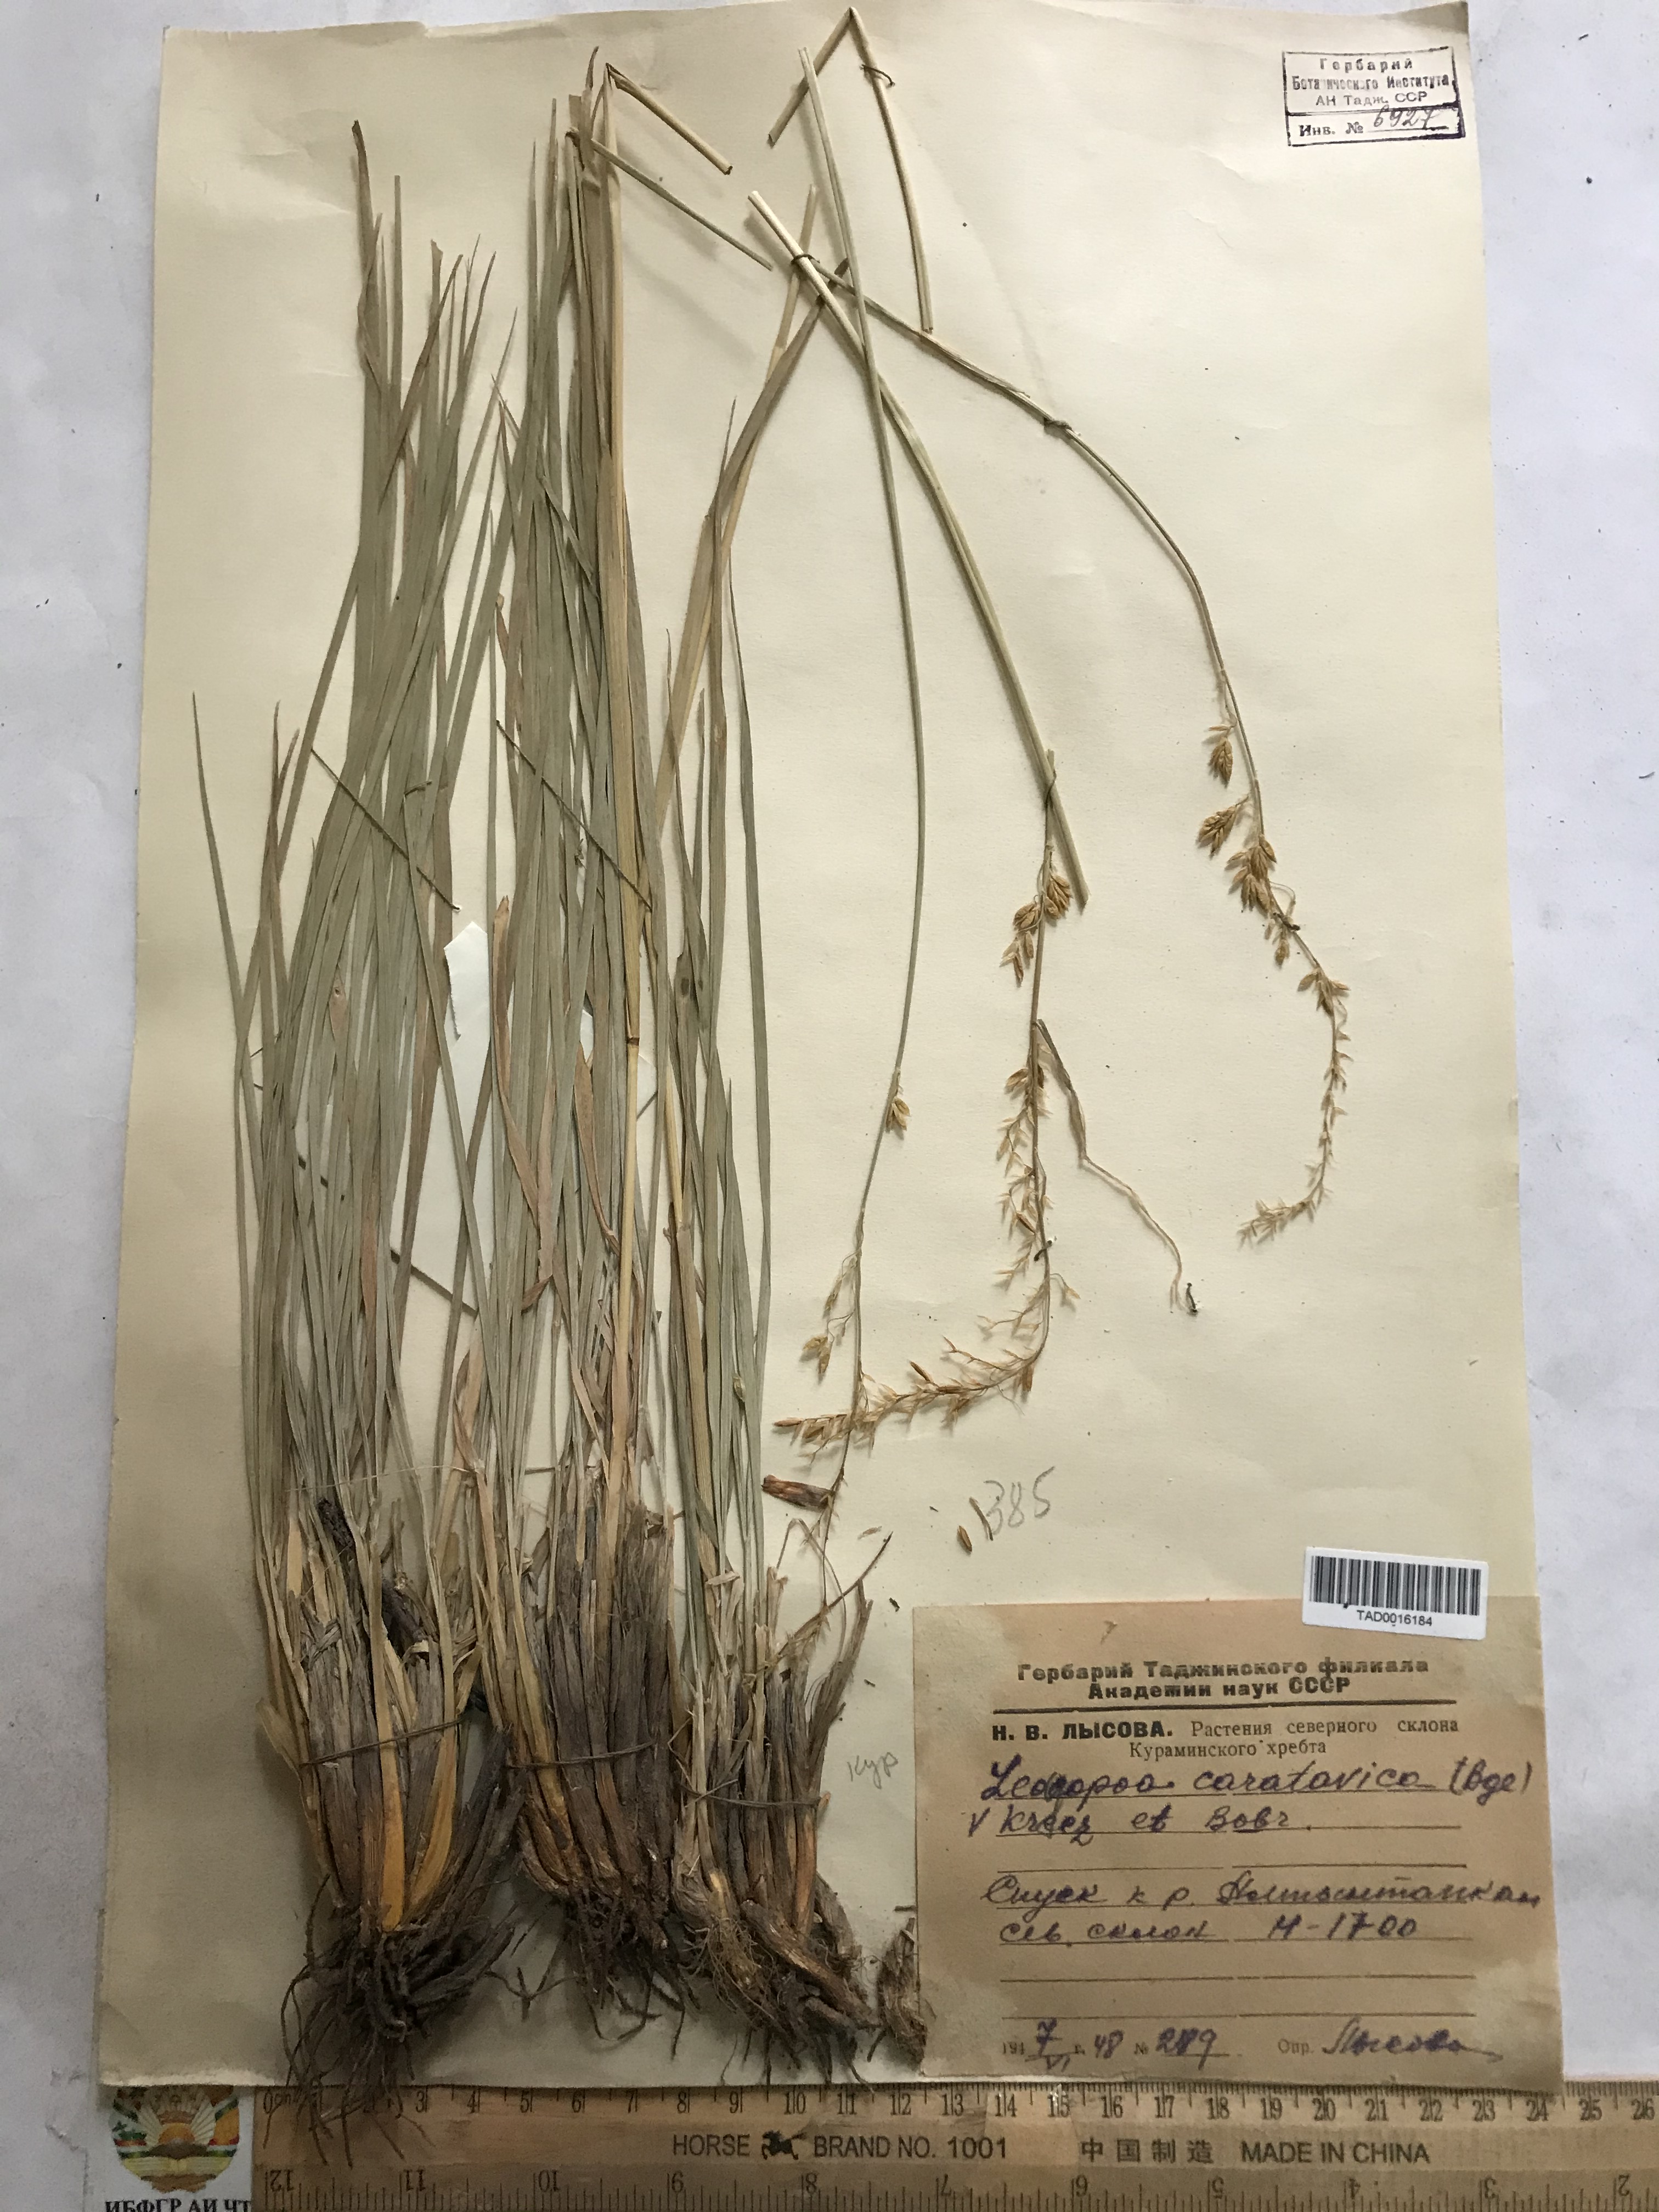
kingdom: Plantae
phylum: Tracheophyta
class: Liliopsida
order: Poales
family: Poaceae
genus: Festuca
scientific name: Festuca karatavica
